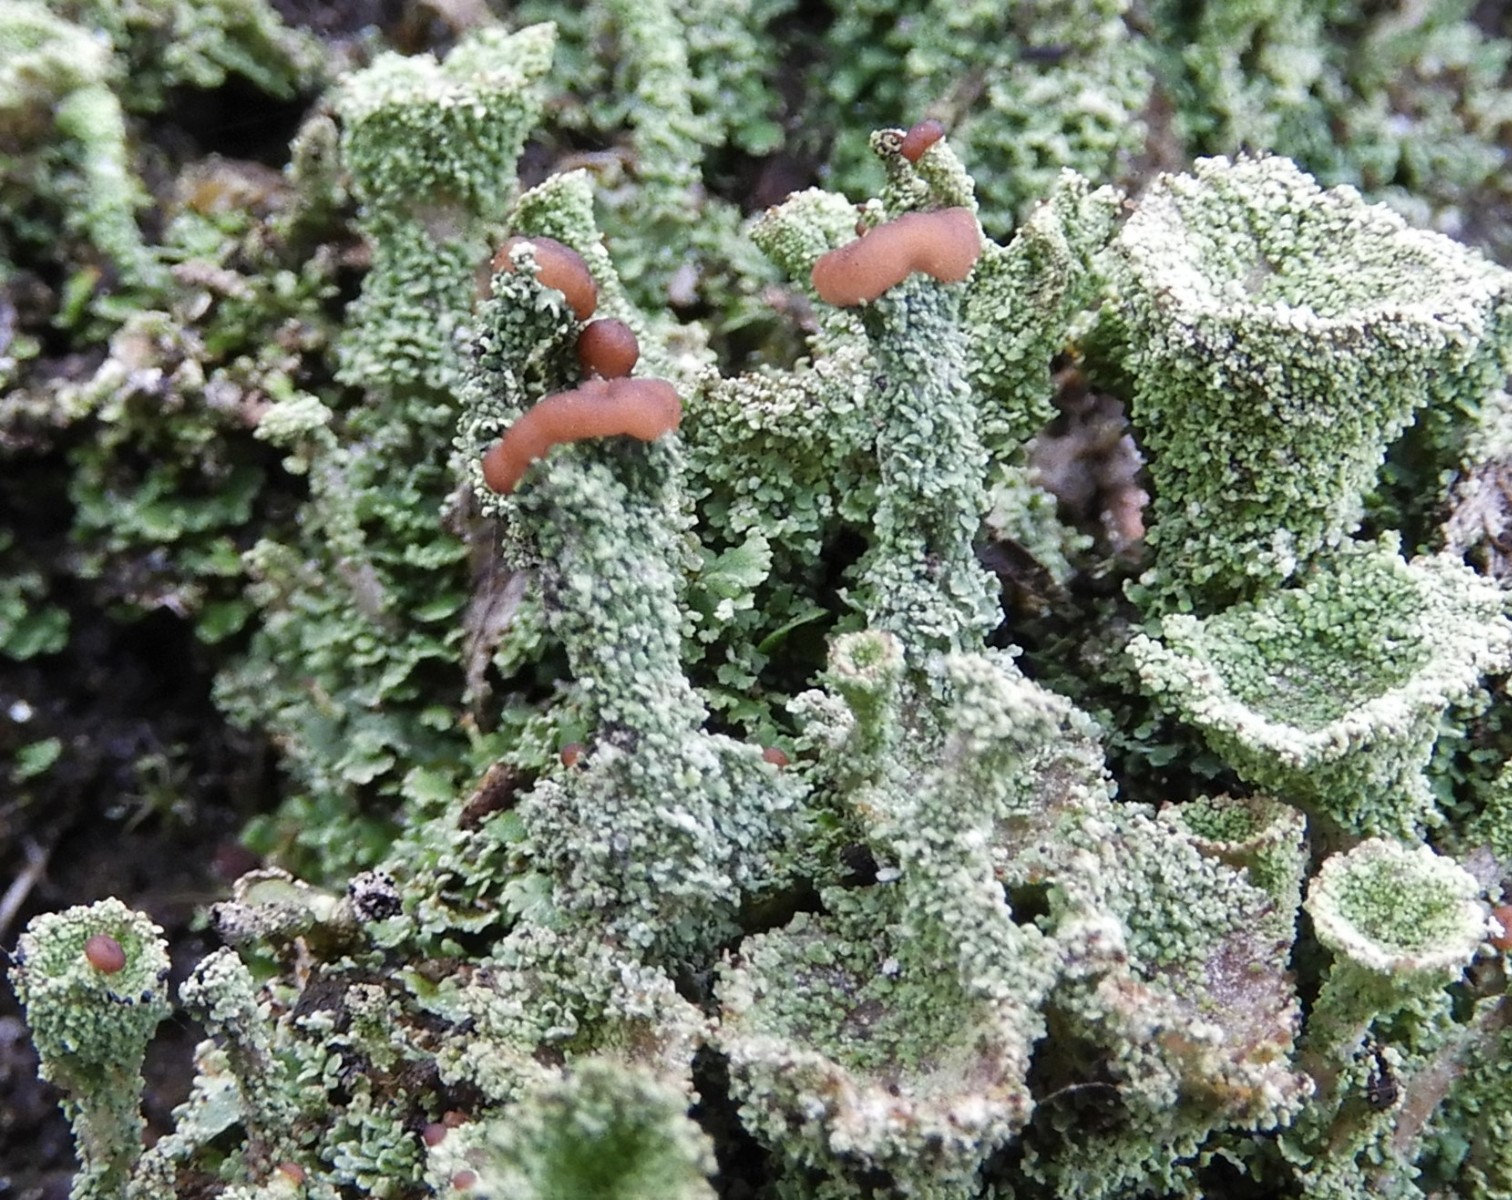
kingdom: Fungi
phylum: Ascomycota
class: Lecanoromycetes
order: Lecanorales
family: Cladoniaceae
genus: Cladonia
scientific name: Cladonia ramulosa
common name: kliddet bægerlav
